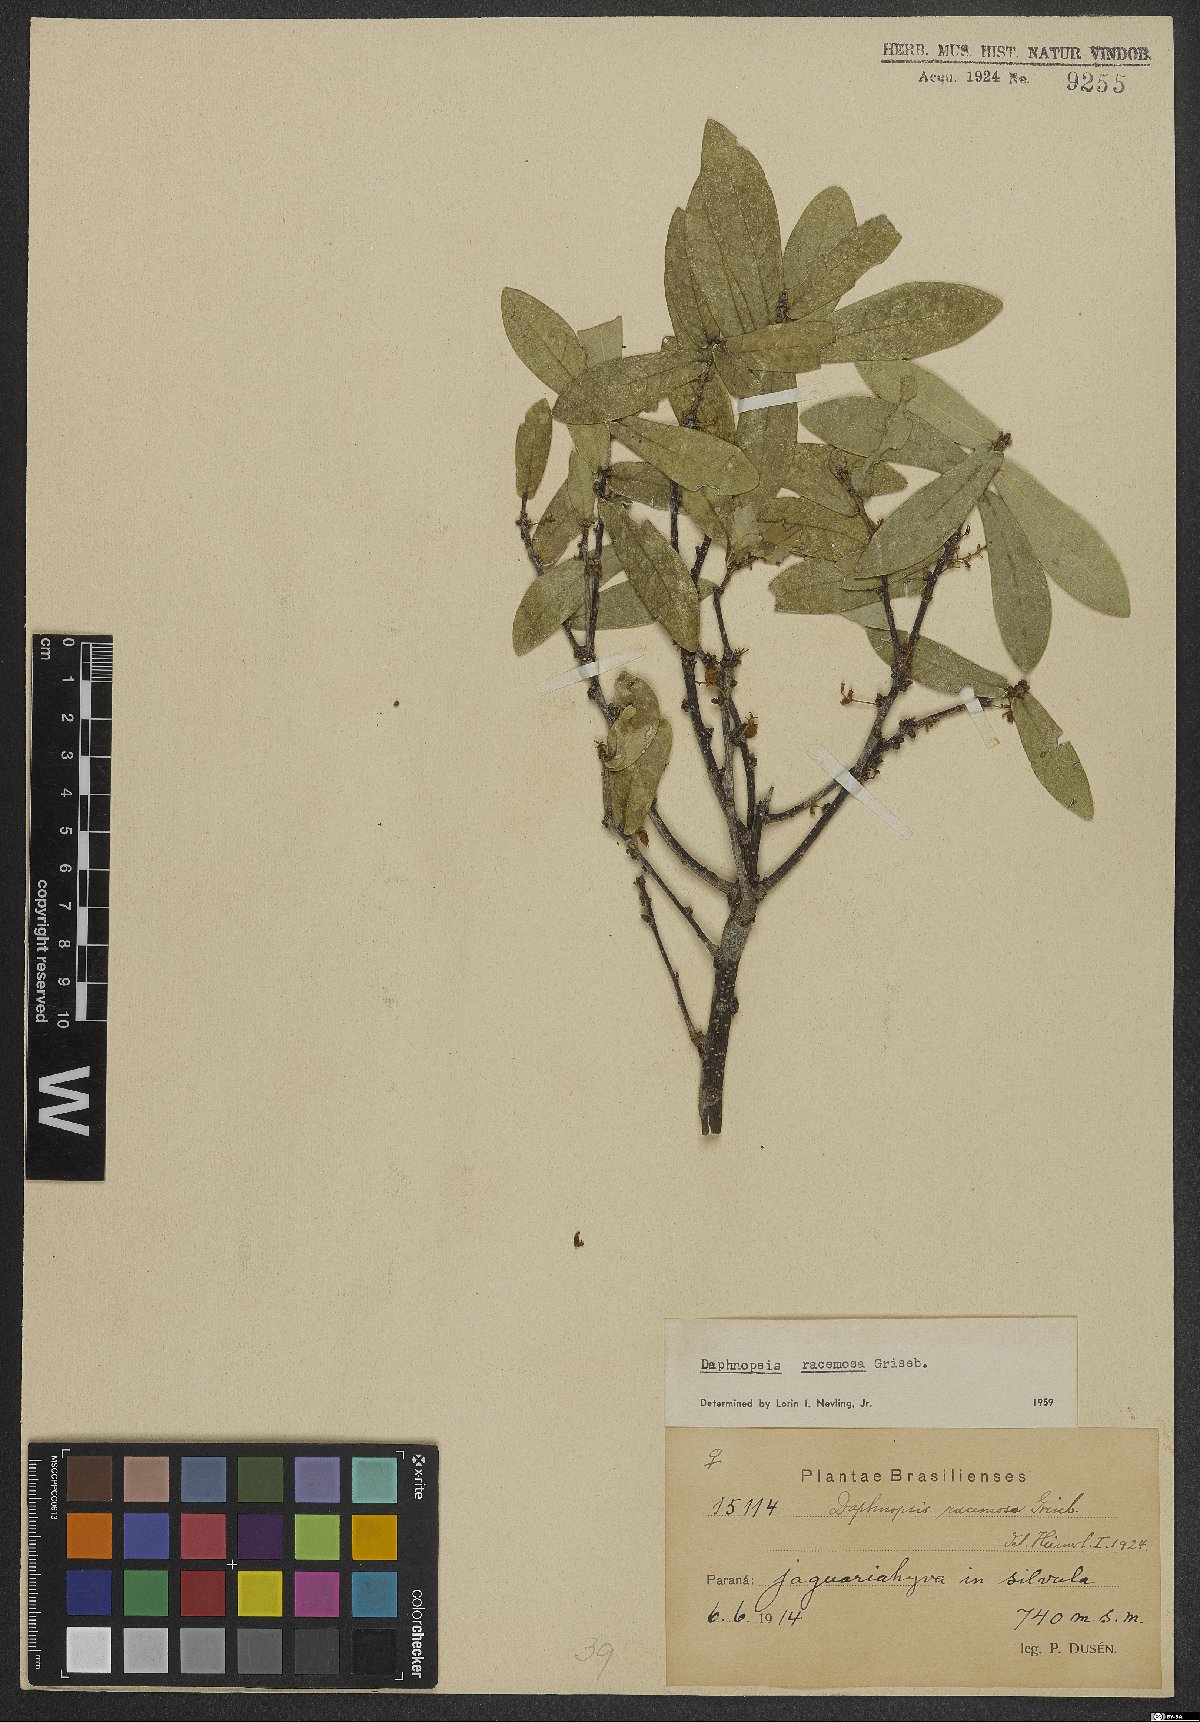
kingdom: Plantae
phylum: Tracheophyta
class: Magnoliopsida
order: Malvales
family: Thymelaeaceae
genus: Daphnopsis
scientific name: Daphnopsis racemosa
